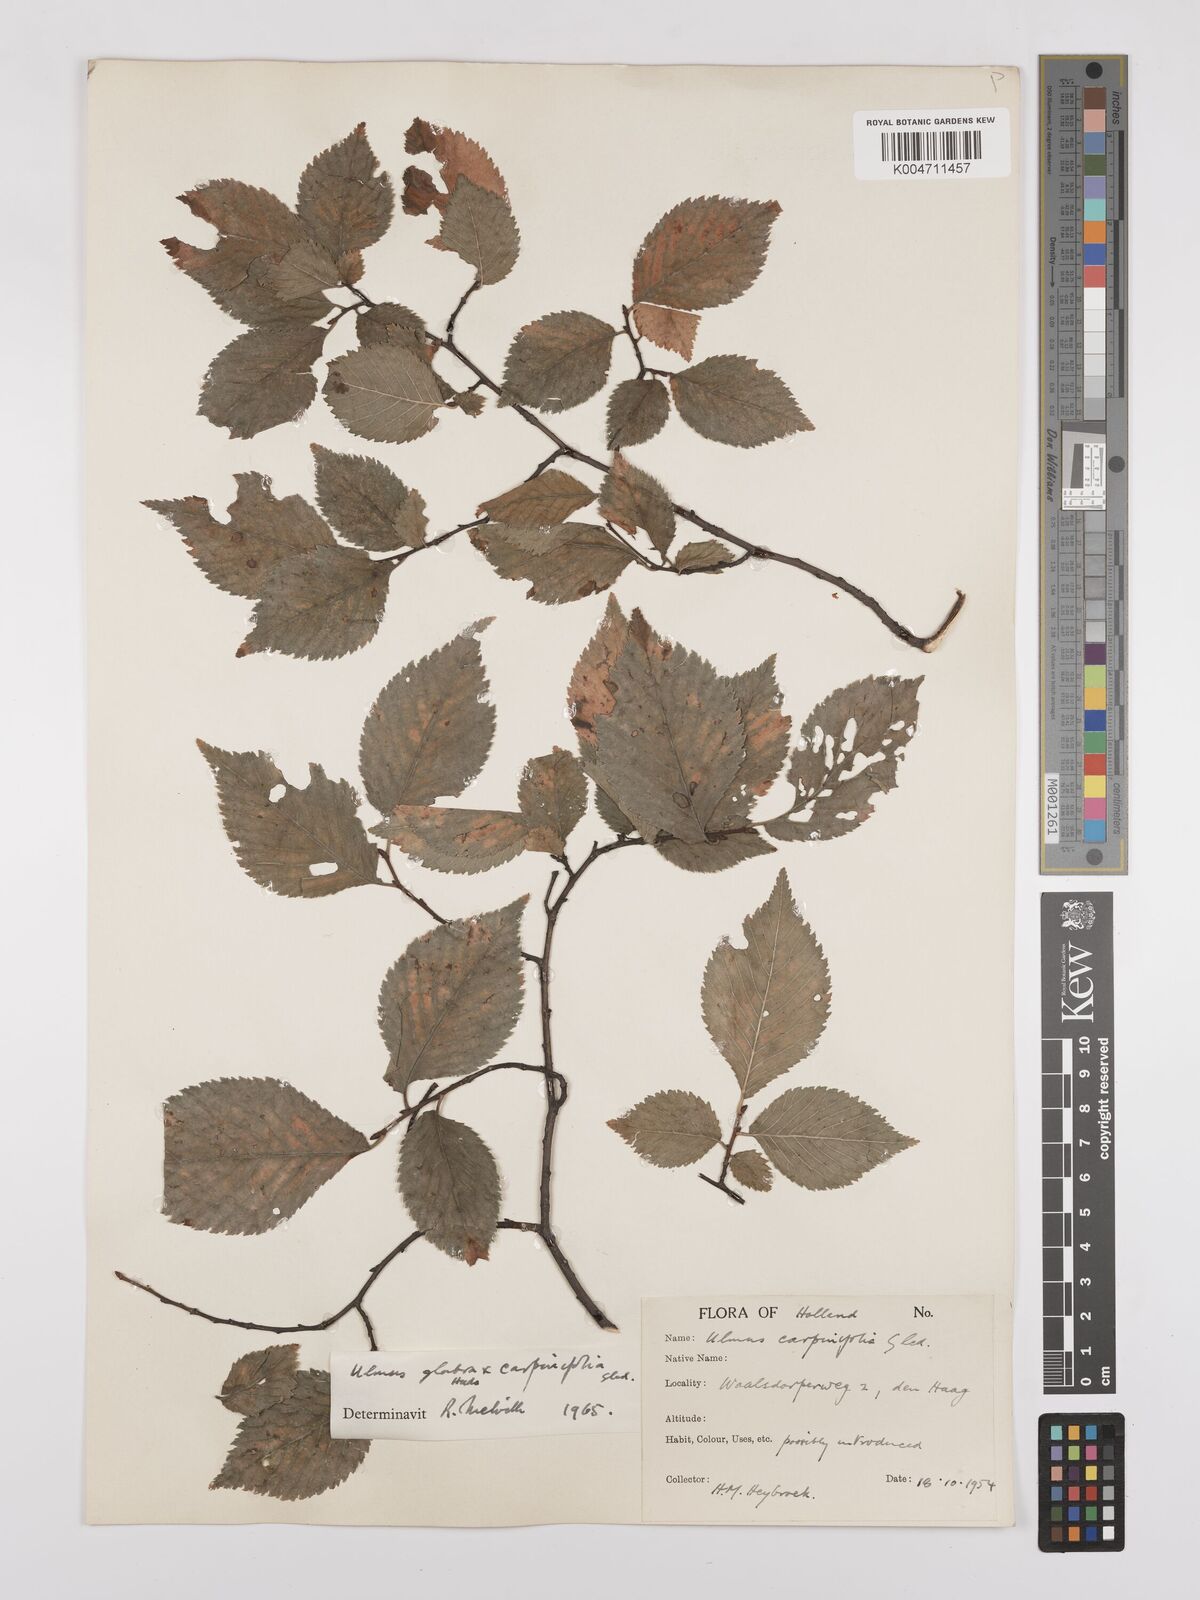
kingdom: Plantae
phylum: Tracheophyta
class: Magnoliopsida
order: Rosales
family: Ulmaceae
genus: Ulmus
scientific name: Ulmus minor
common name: Small-leaved elm
